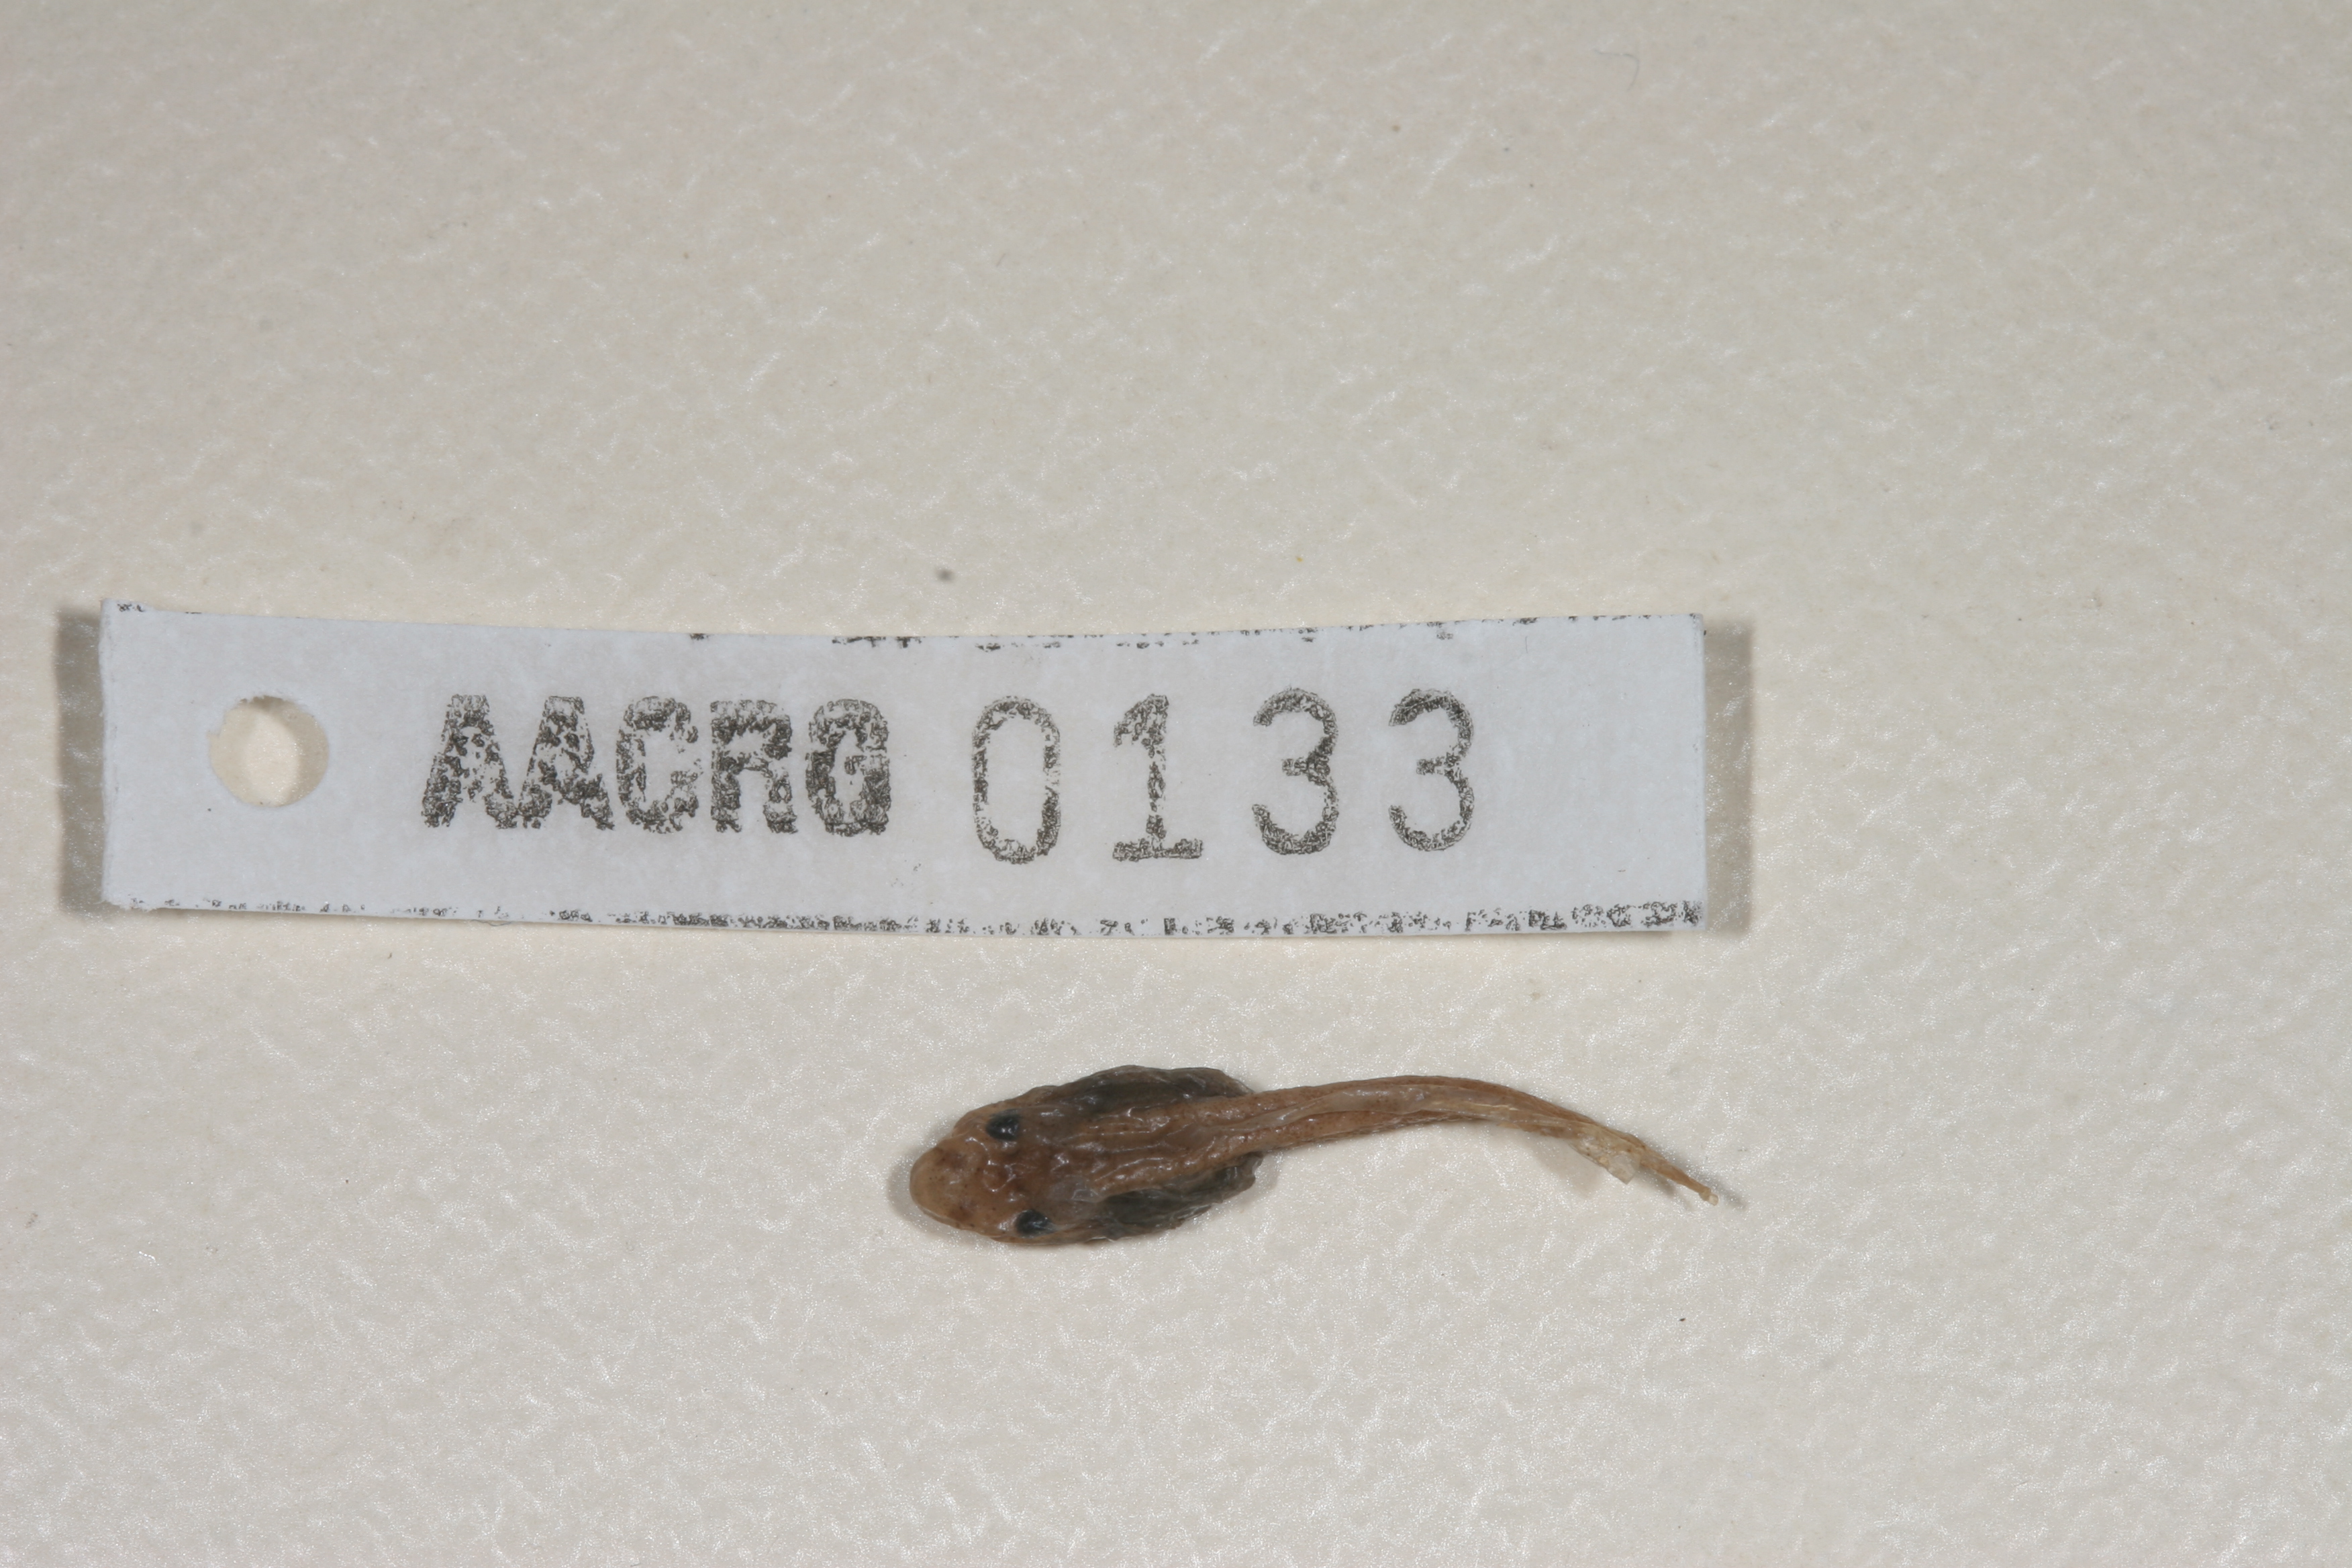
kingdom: Animalia
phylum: Chordata
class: Amphibia
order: Anura
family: Hyperoliidae
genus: Hyperolius
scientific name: Hyperolius semidiscus
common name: Yellow-striped reed frog
